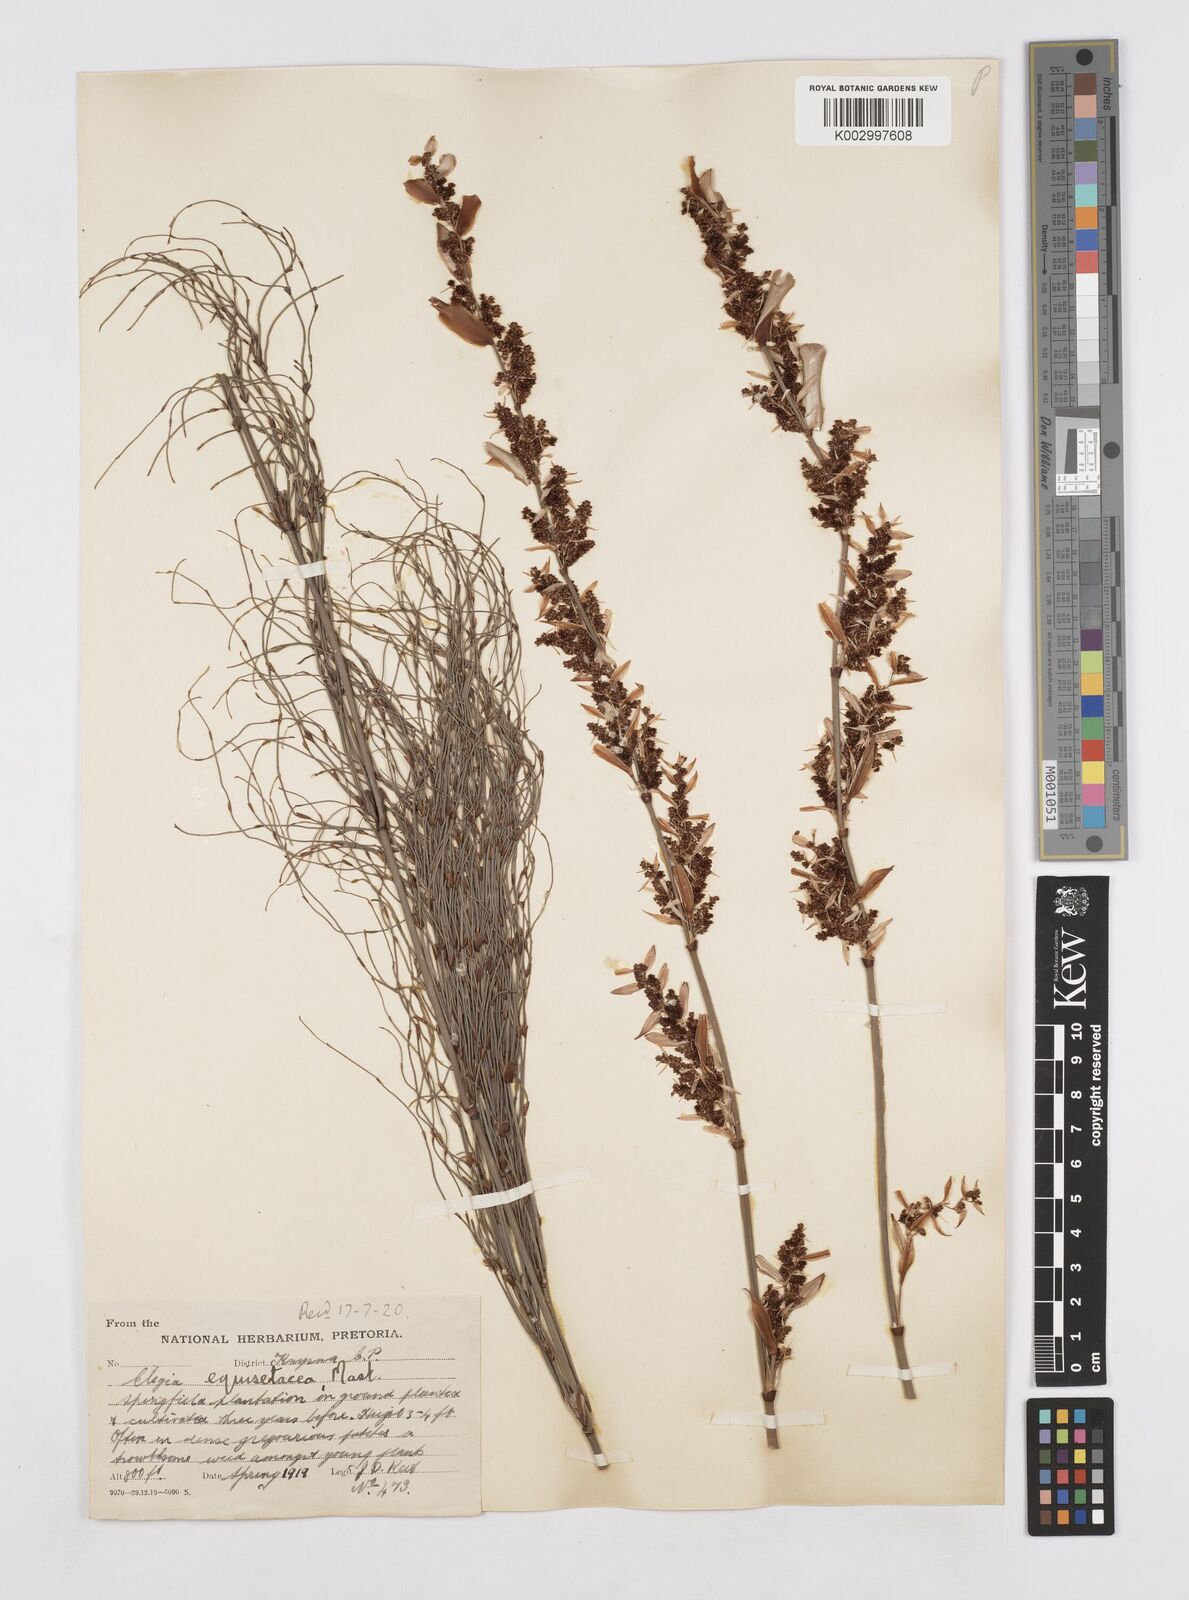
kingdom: Plantae
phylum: Tracheophyta
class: Liliopsida
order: Poales
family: Restionaceae
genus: Elegia
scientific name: Elegia equisetacea
